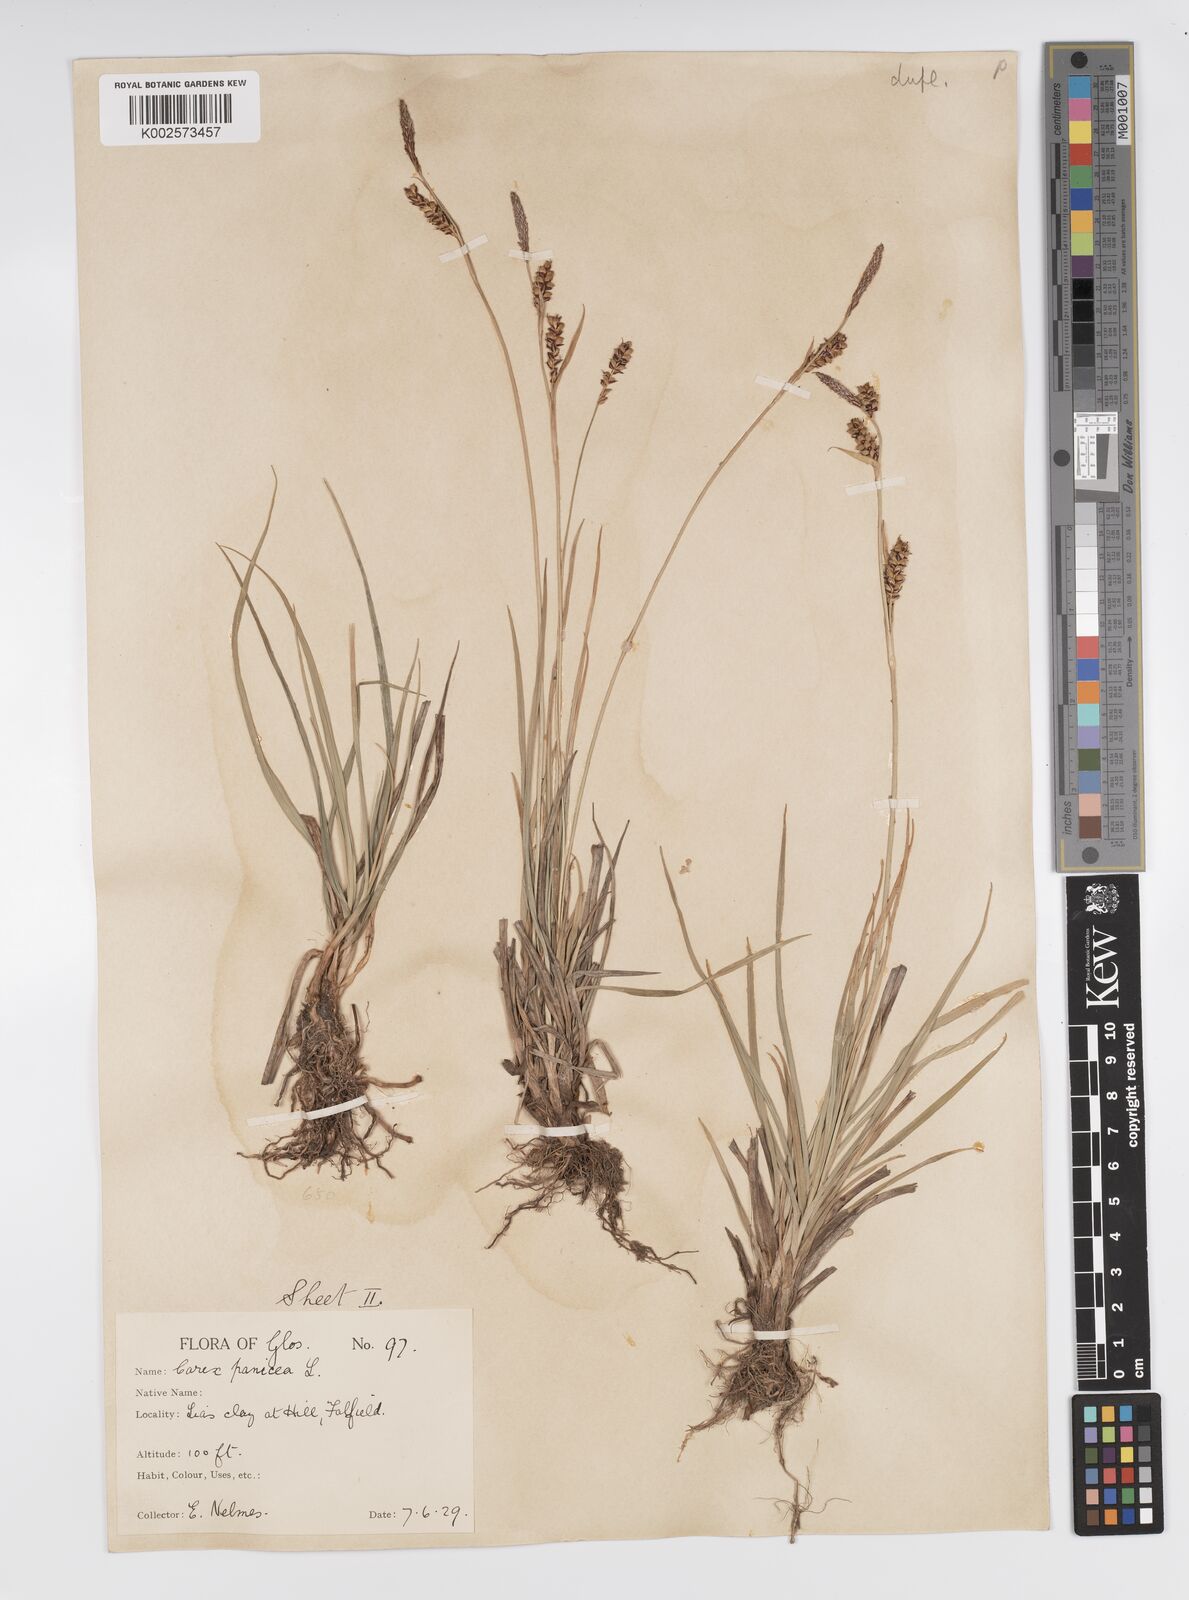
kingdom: Plantae
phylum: Tracheophyta
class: Liliopsida
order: Poales
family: Cyperaceae
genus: Carex
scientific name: Carex panicea
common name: Carnation sedge
